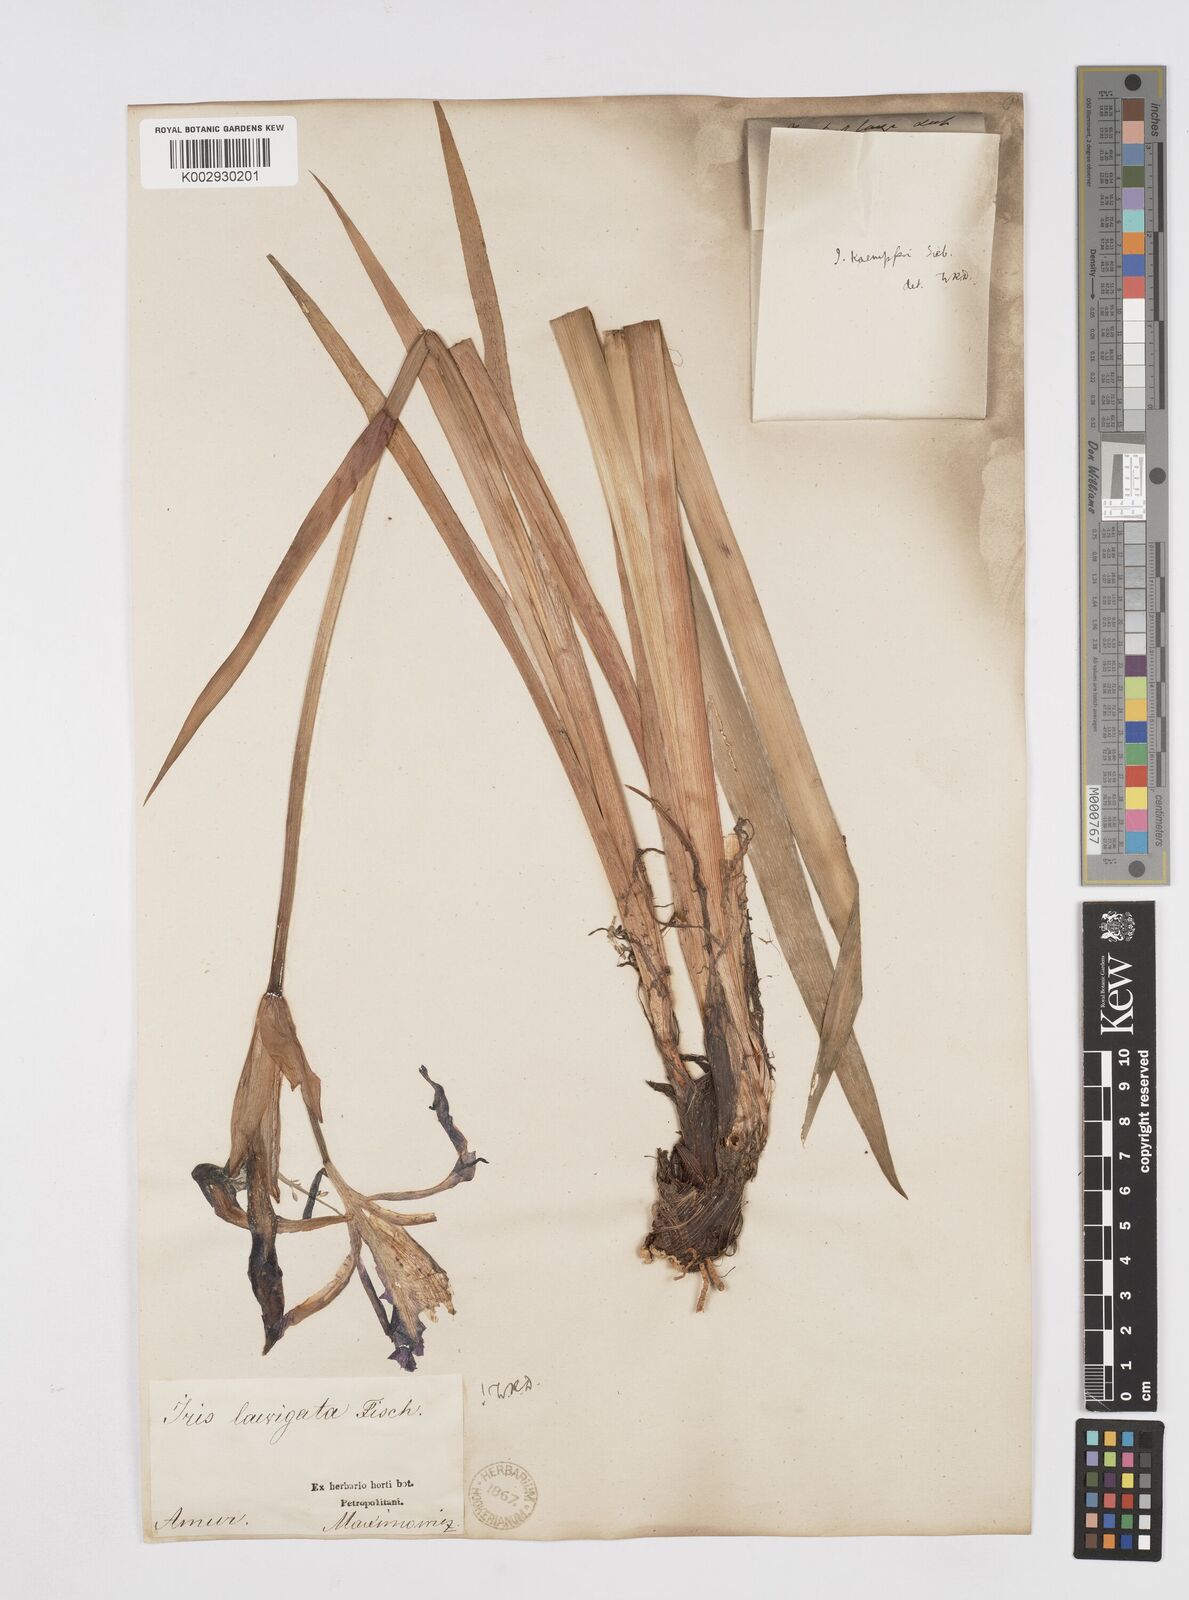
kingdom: Plantae
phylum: Tracheophyta
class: Liliopsida
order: Asparagales
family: Iridaceae
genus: Iris
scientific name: Iris laevigata
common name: Japanese iris
